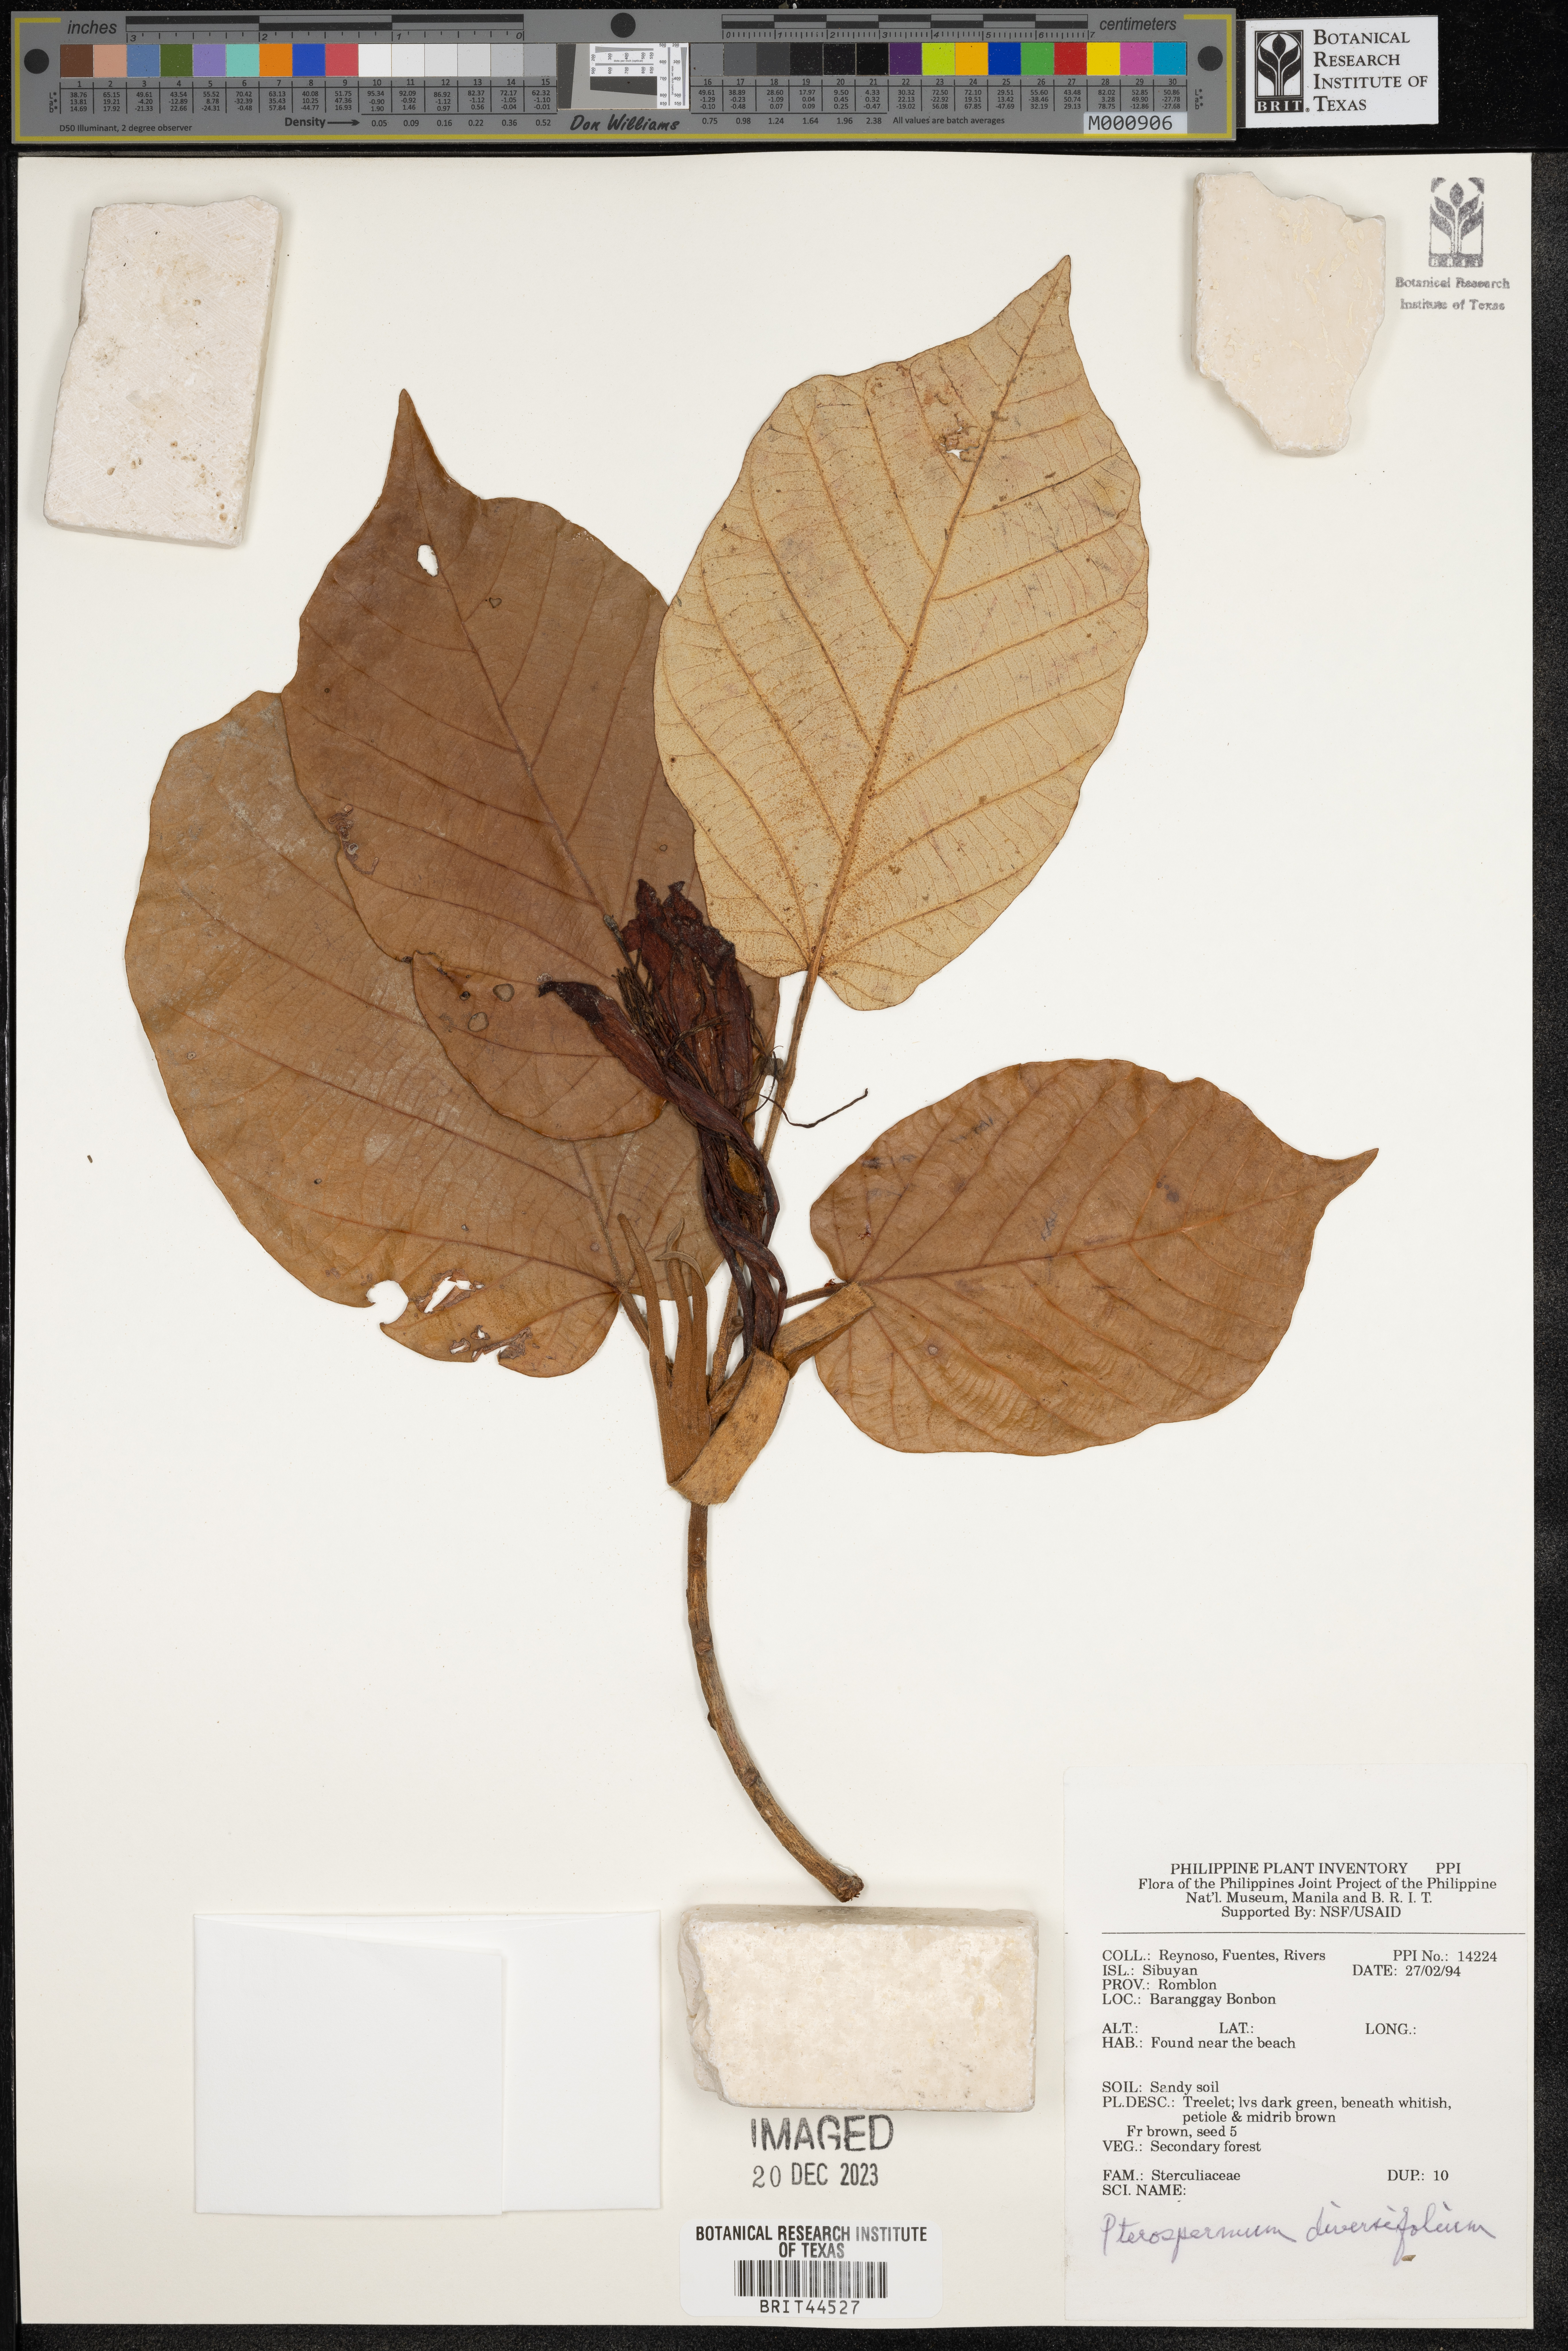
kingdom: Plantae
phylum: Tracheophyta
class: Magnoliopsida
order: Malvales
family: Malvaceae
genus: Pterospermum
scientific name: Pterospermum diversifolium
